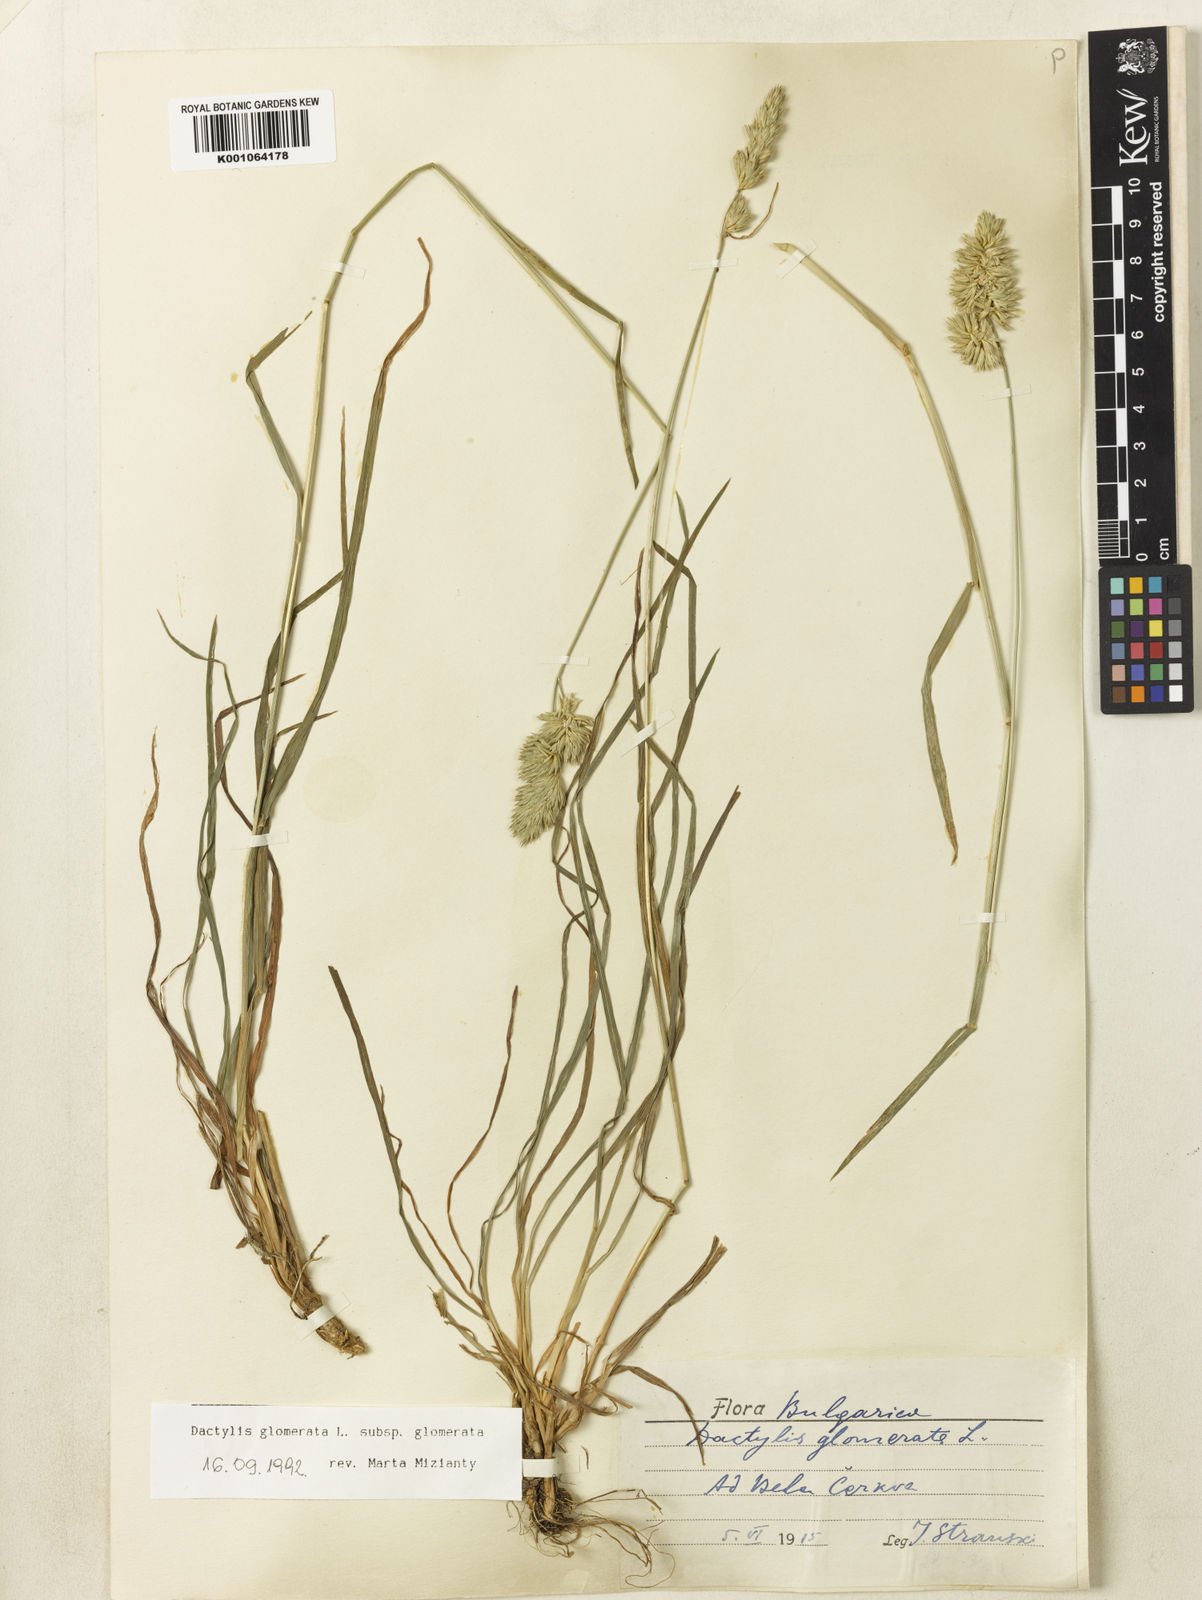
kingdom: Plantae
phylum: Tracheophyta
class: Liliopsida
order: Poales
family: Poaceae
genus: Dactylis
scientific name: Dactylis glomerata
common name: Orchardgrass
